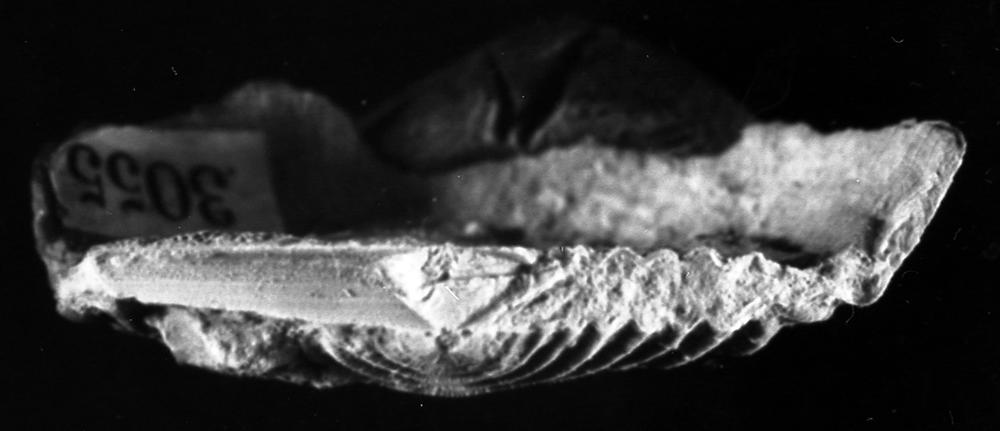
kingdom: Animalia
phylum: Brachiopoda
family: Strophomenidae
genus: Leptaena
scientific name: Leptaena alliku
